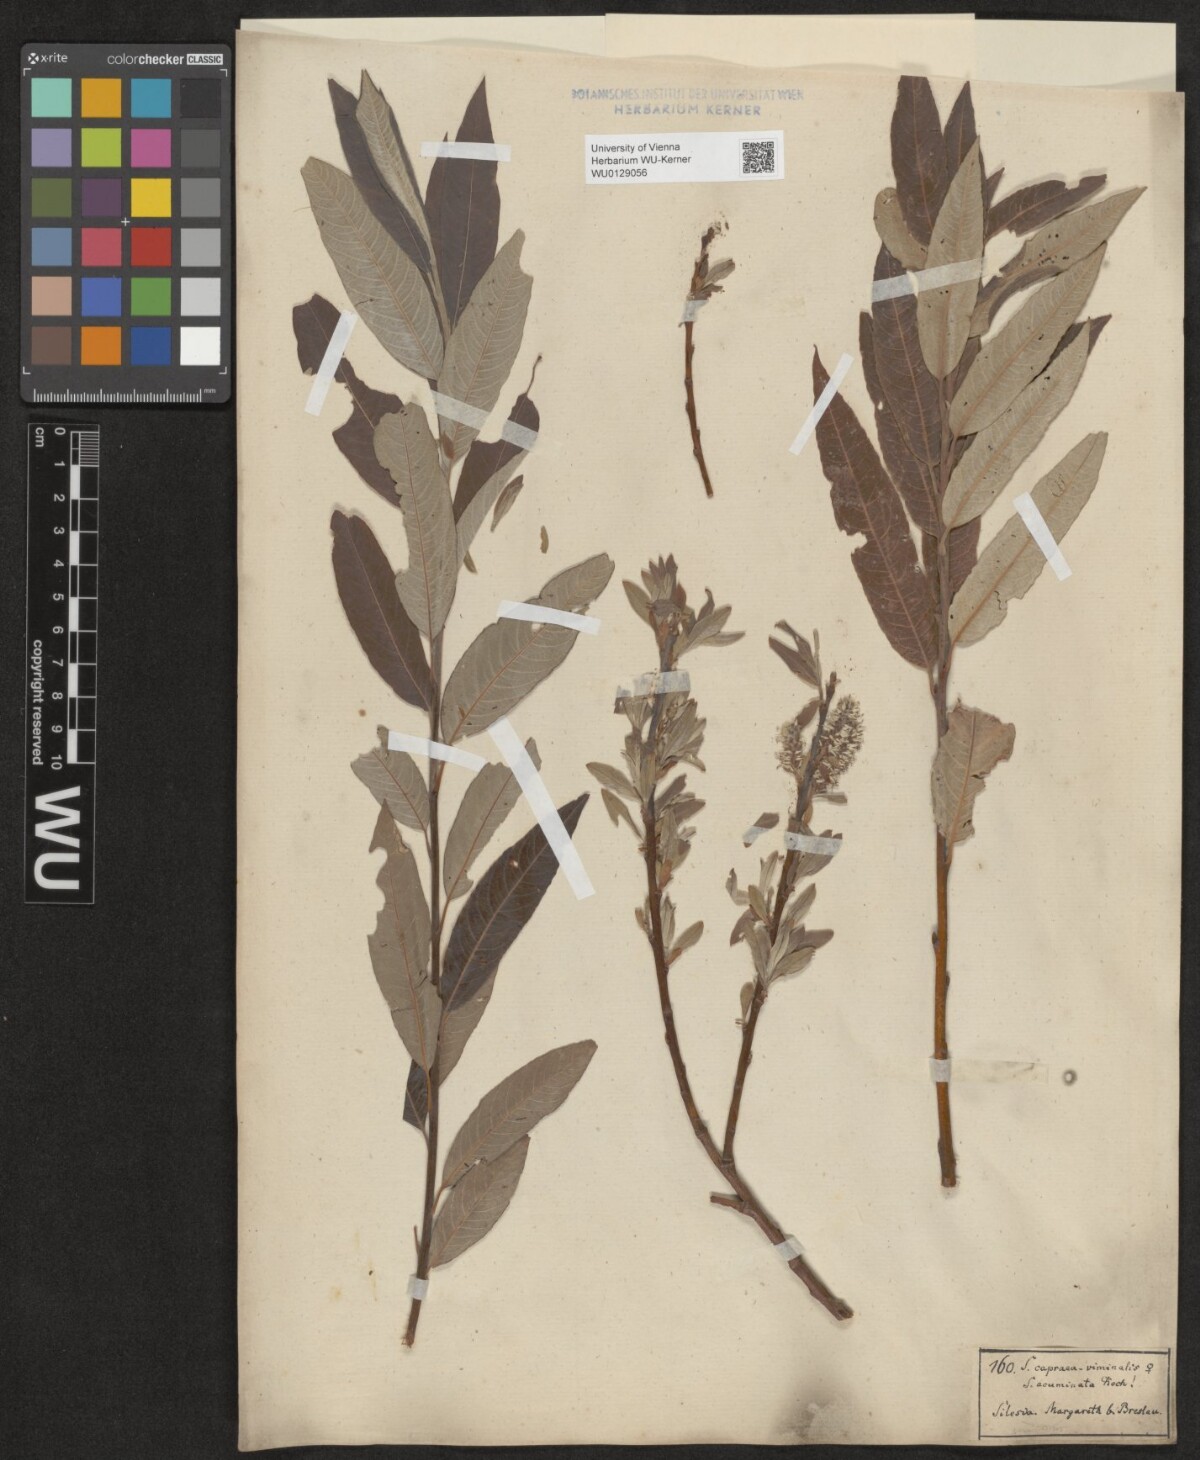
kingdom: Plantae
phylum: Tracheophyta
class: Magnoliopsida
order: Malpighiales
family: Salicaceae
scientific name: Salicaceae
